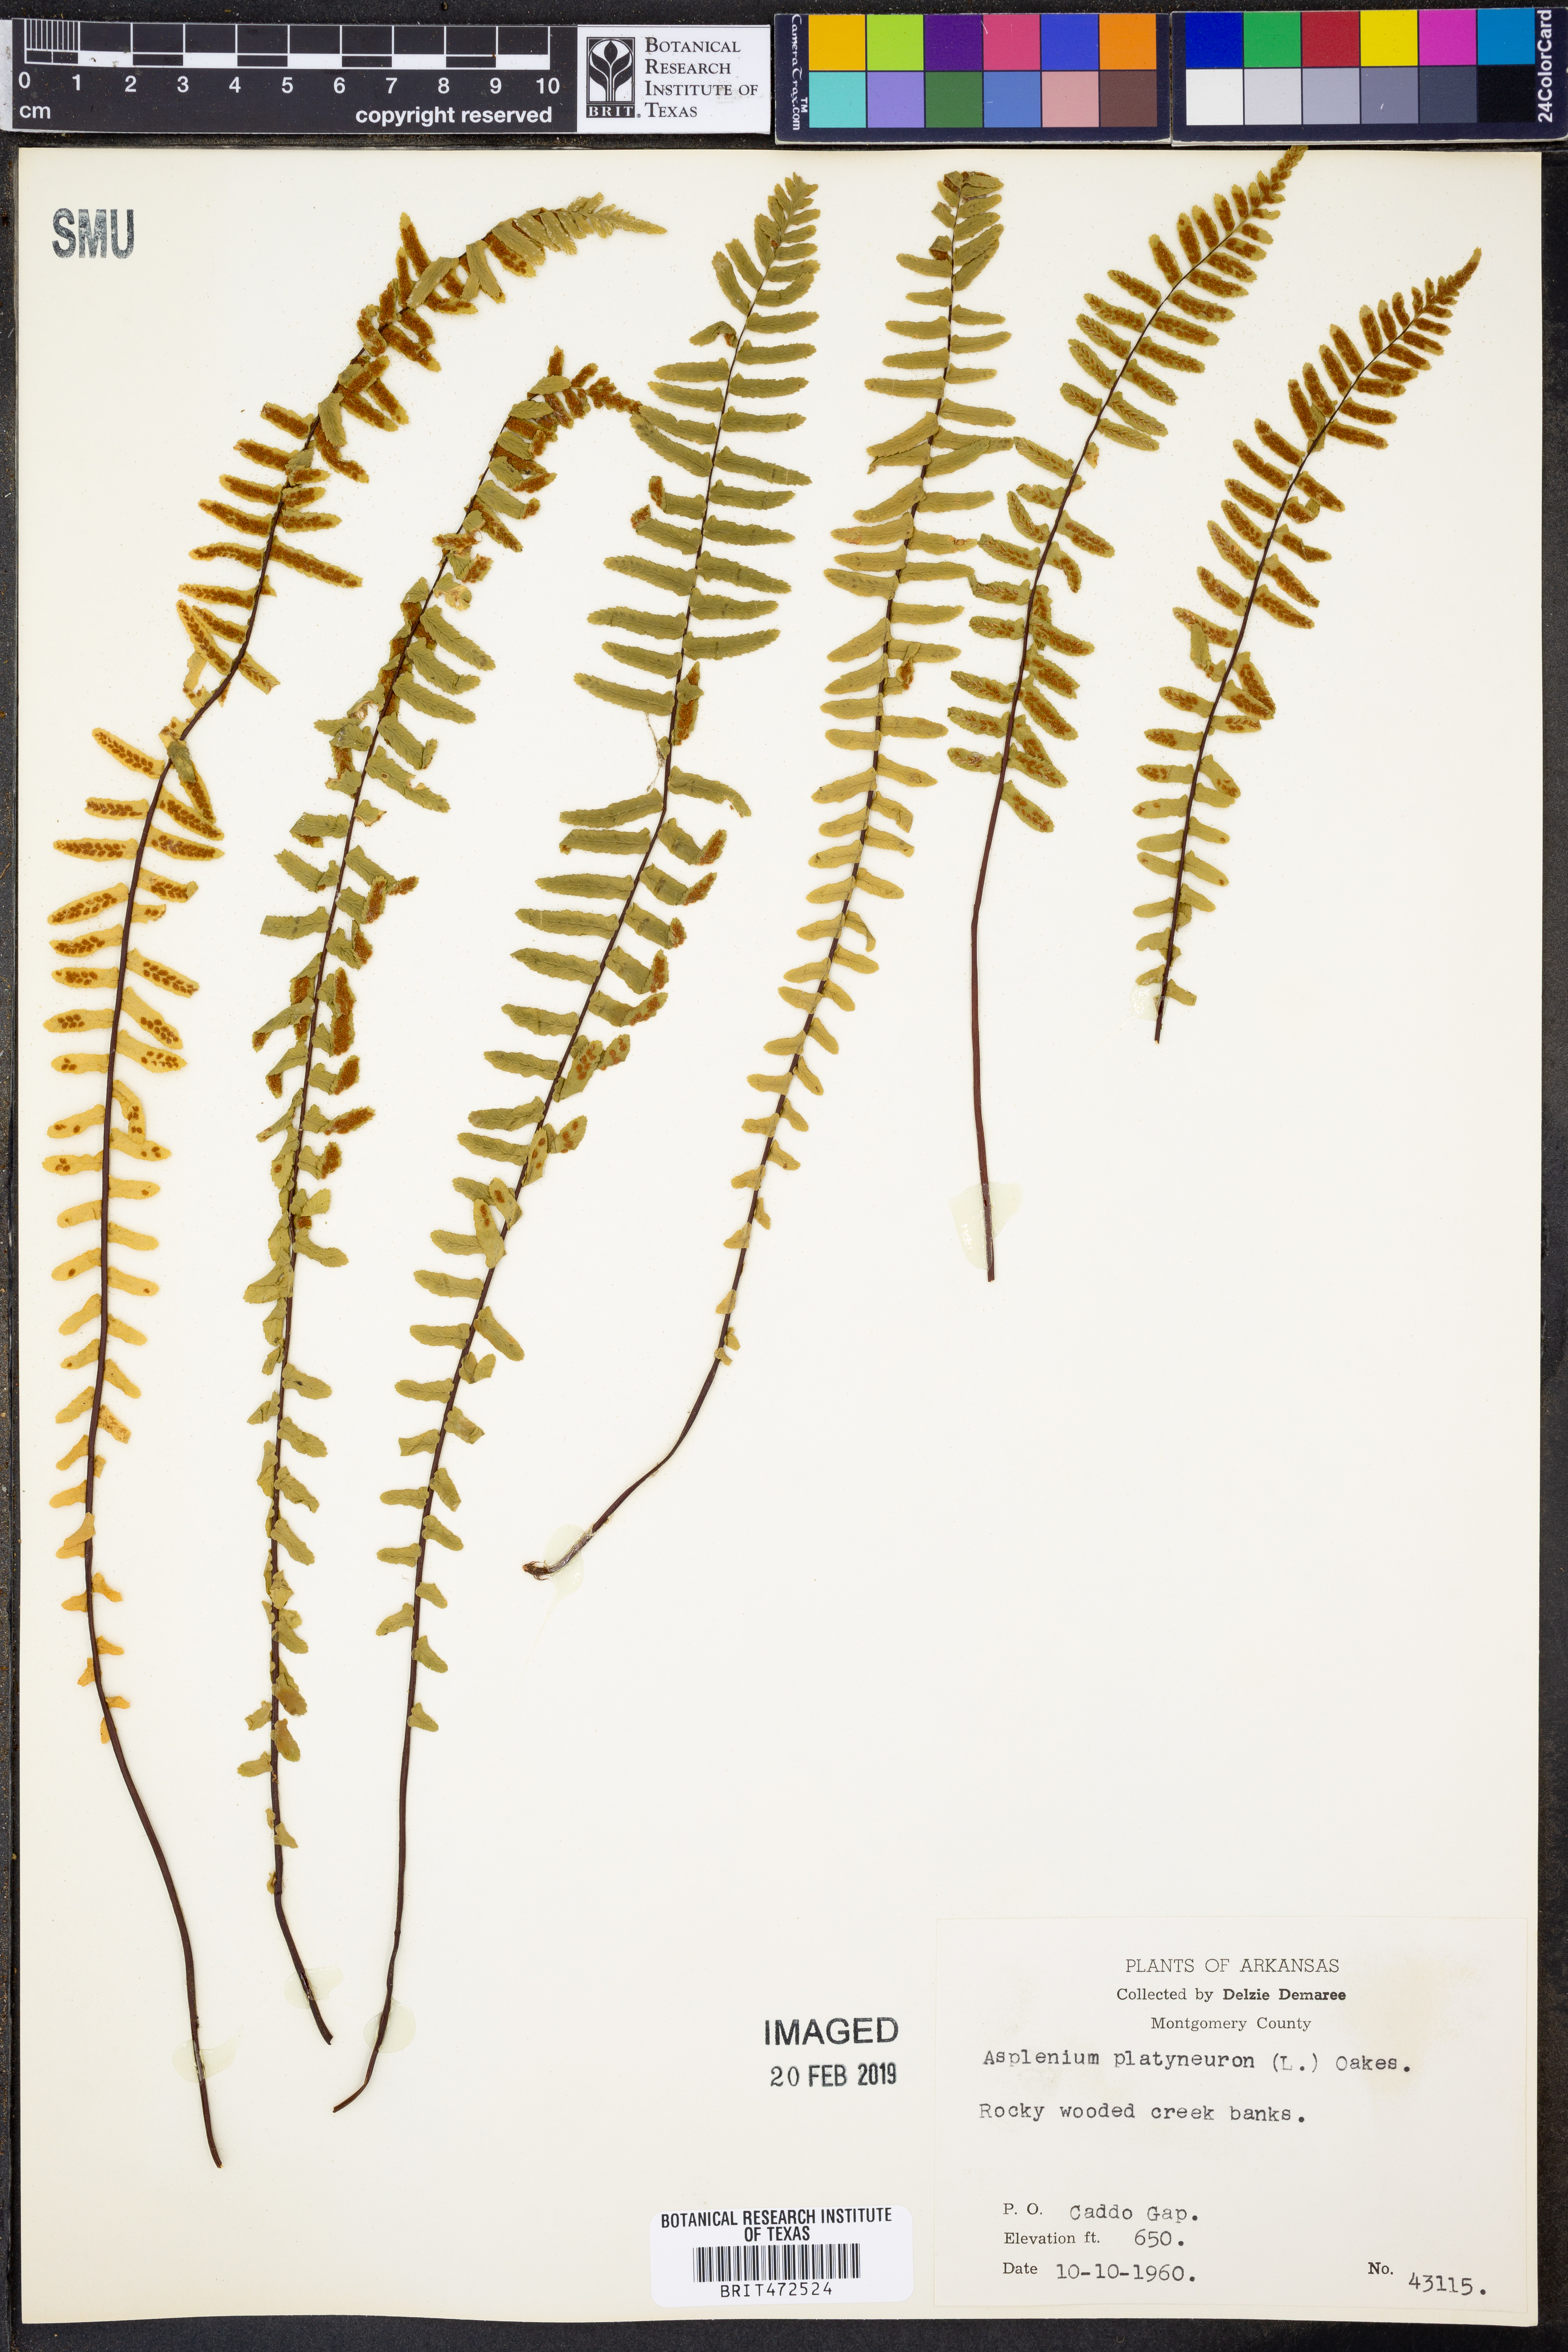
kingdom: Plantae
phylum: Tracheophyta
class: Polypodiopsida
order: Polypodiales
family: Aspleniaceae
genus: Asplenium
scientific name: Asplenium platyneuron
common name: Ebony spleenwort
